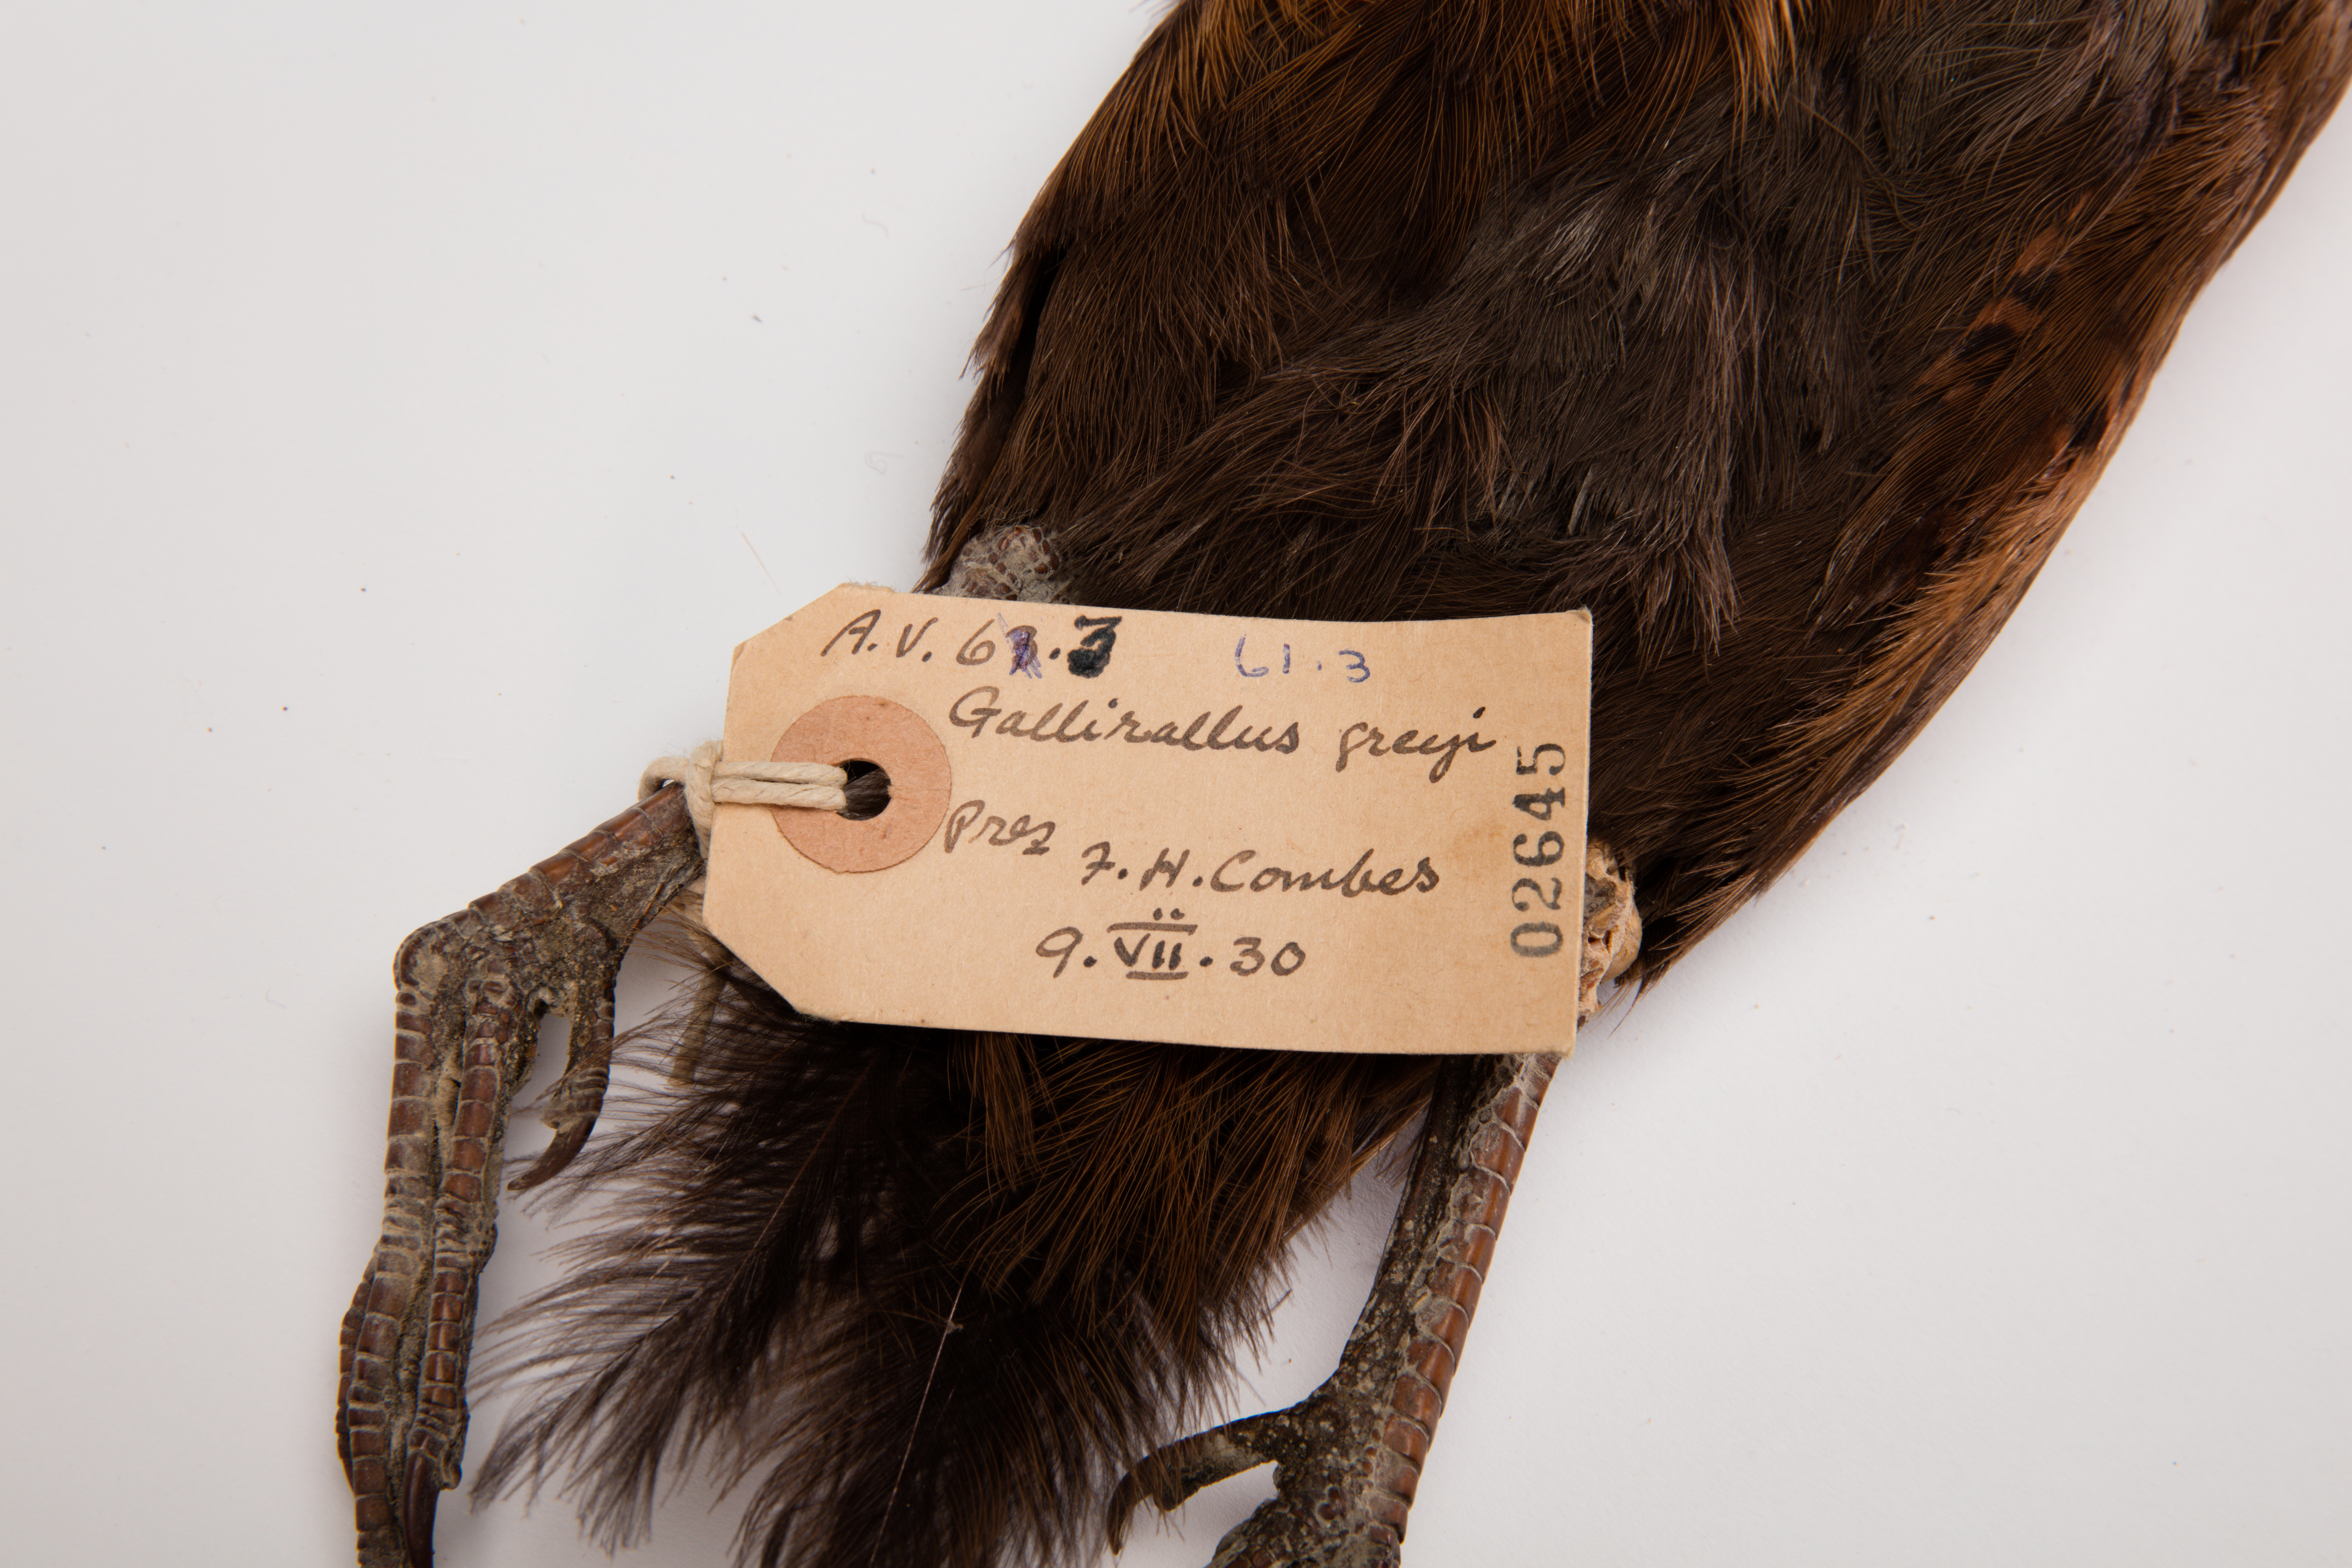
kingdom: Animalia
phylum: Chordata
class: Aves
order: Gruiformes
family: Rallidae
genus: Gallirallus
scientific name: Gallirallus australis
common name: Weka
